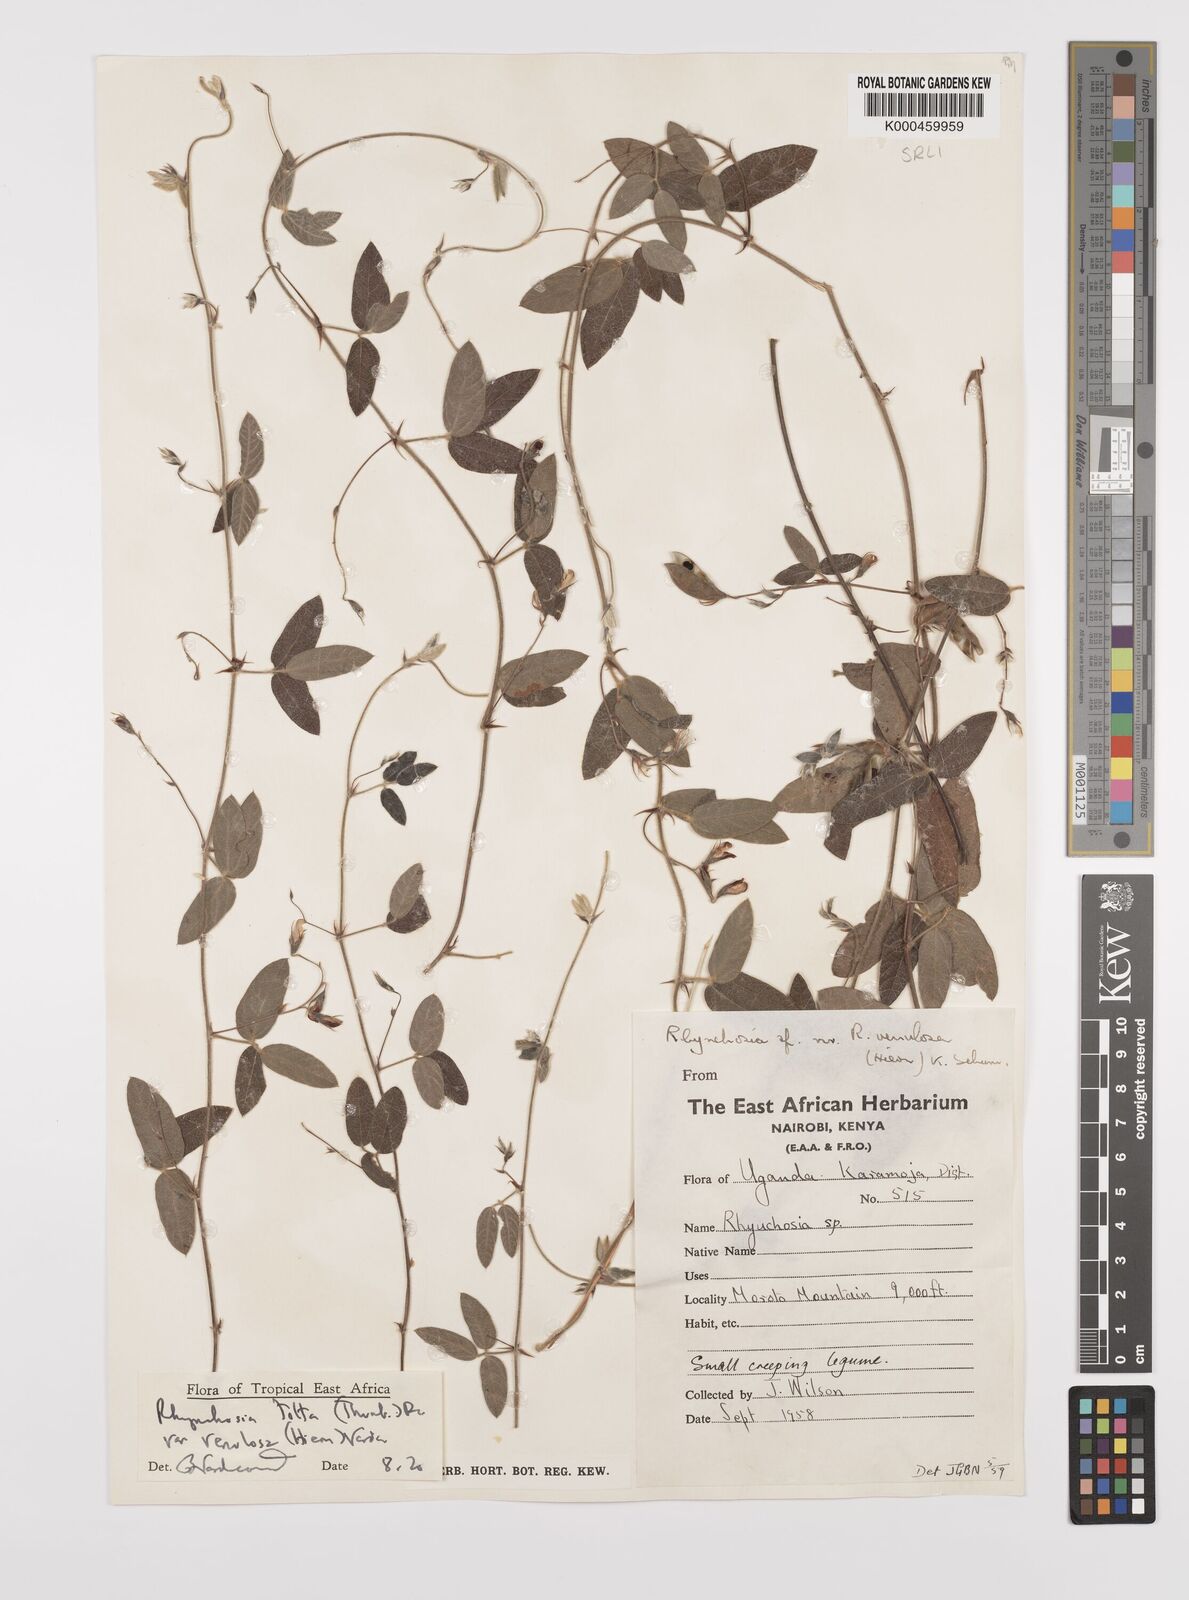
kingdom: Plantae
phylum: Tracheophyta
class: Magnoliopsida
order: Fabales
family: Fabaceae
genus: Rhynchosia
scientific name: Rhynchosia totta
